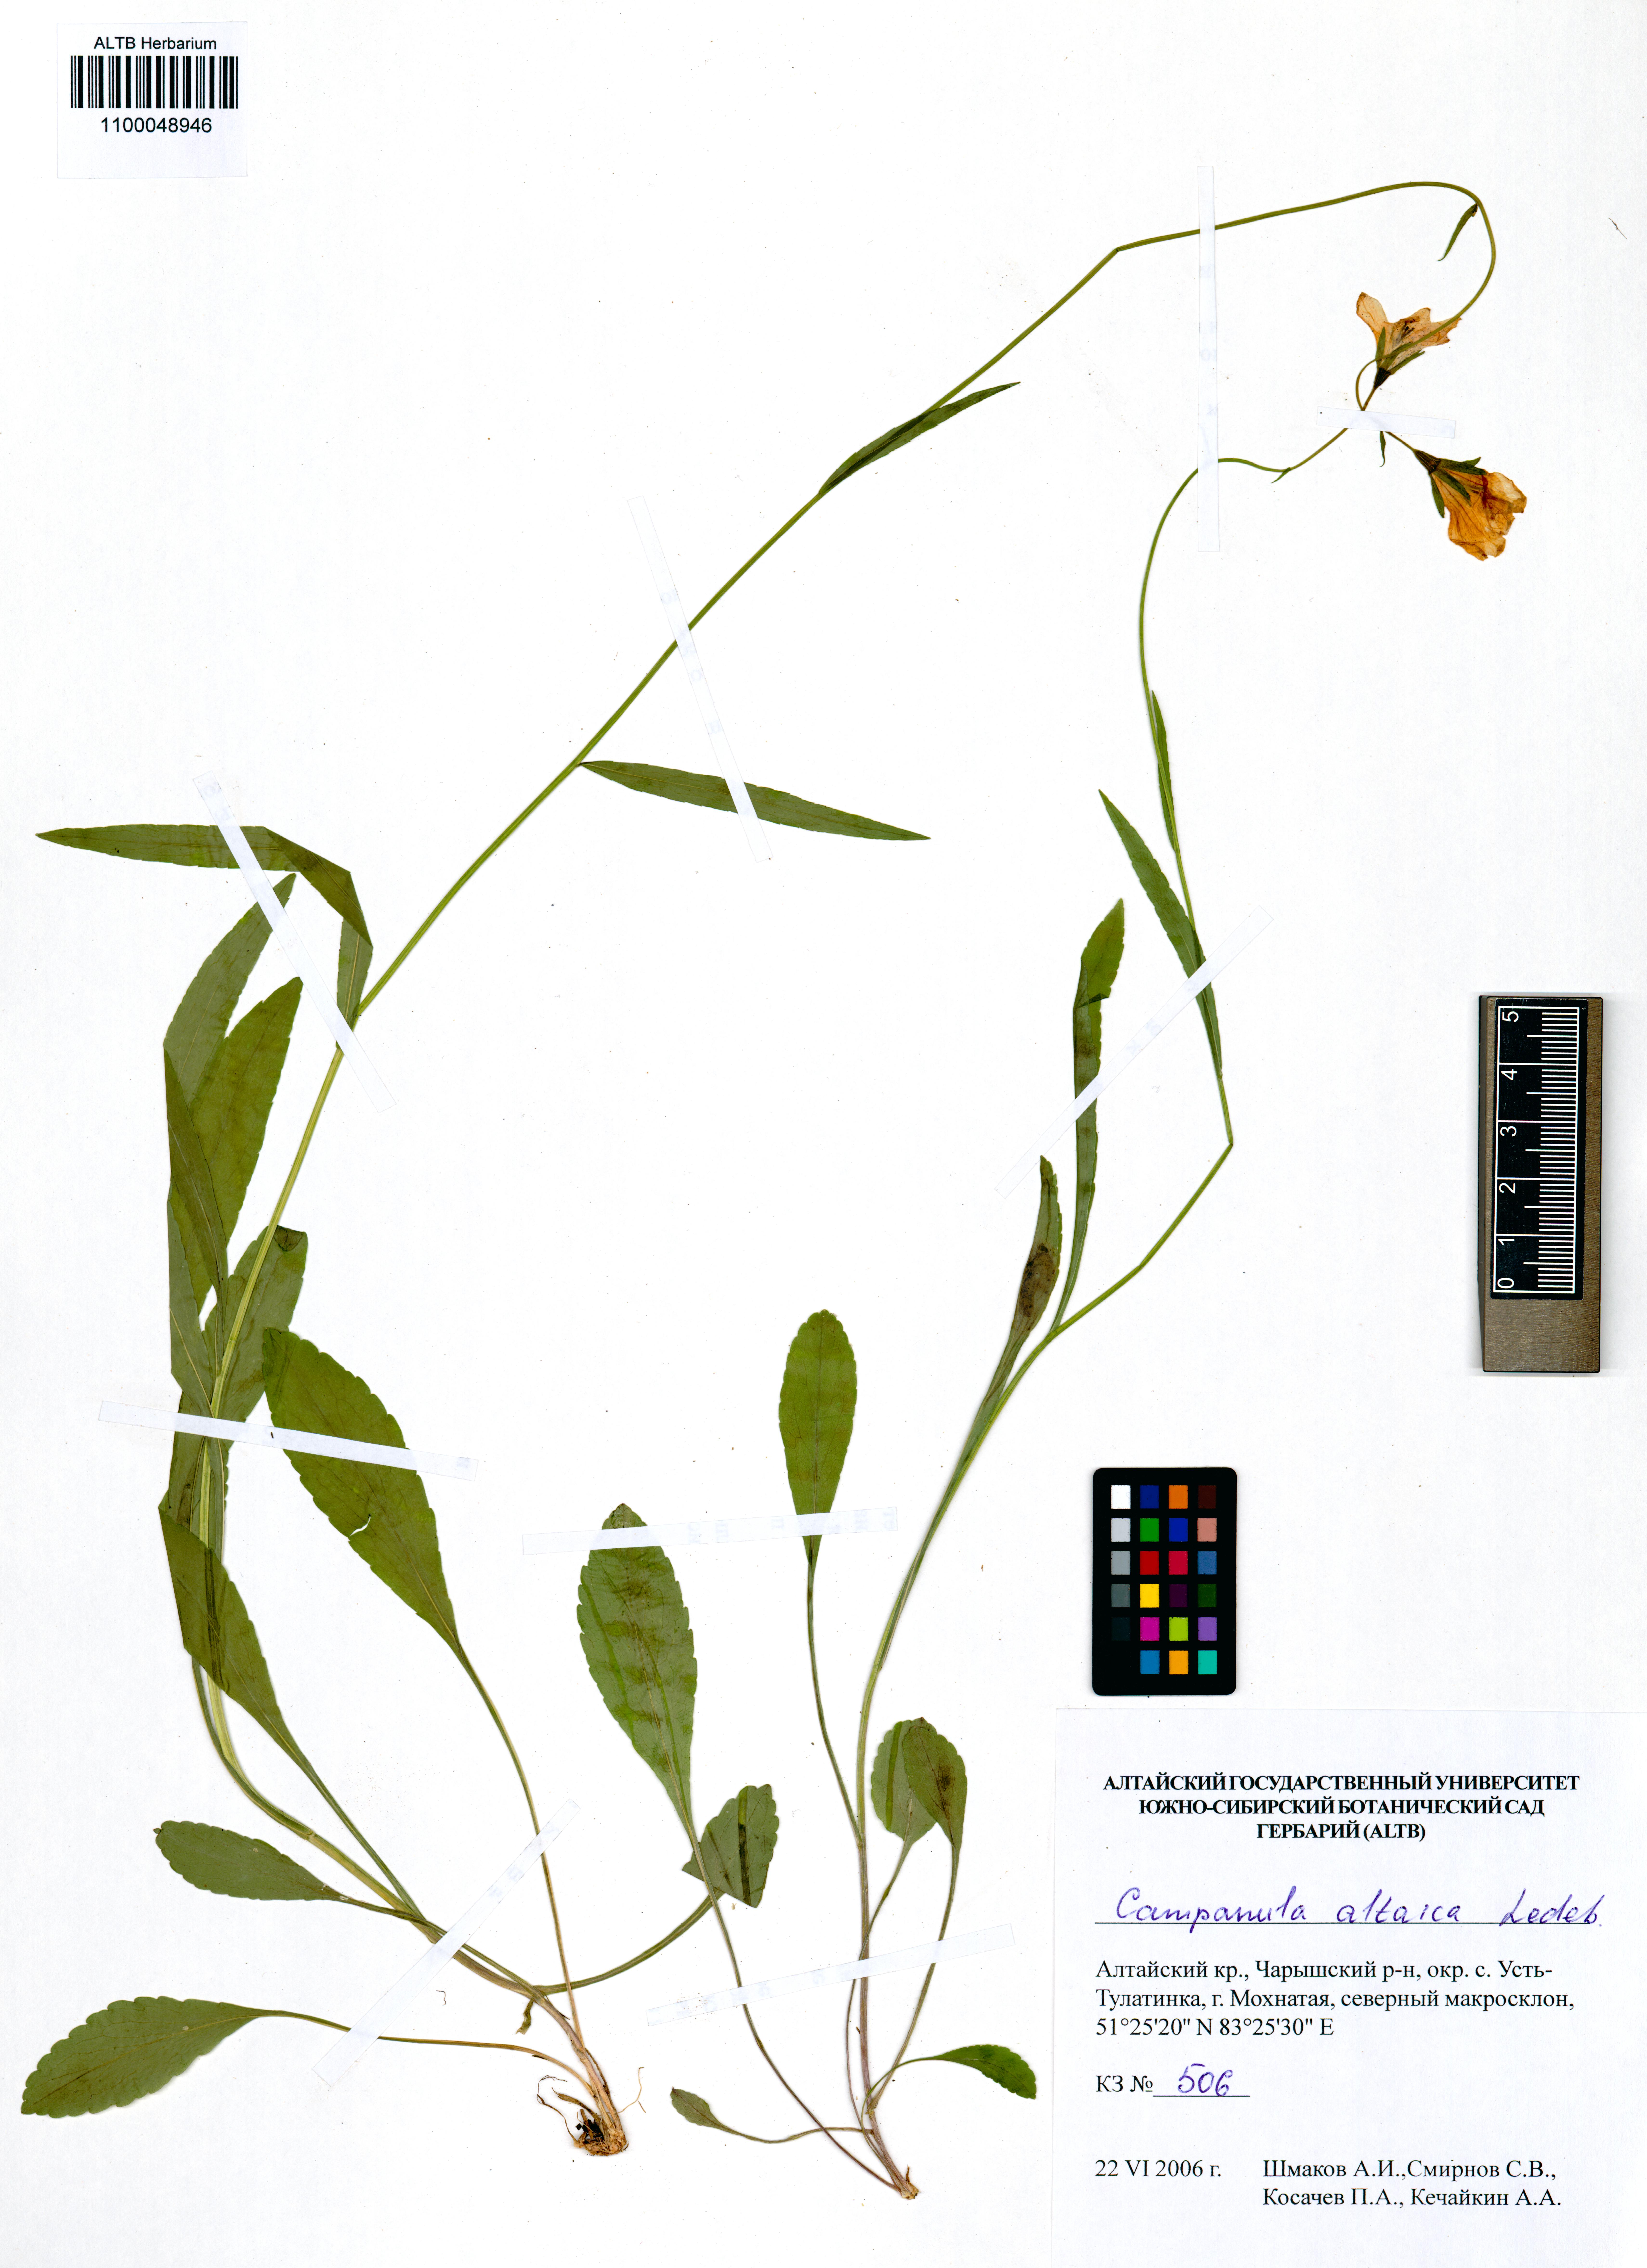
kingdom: Plantae
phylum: Tracheophyta
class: Magnoliopsida
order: Asterales
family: Campanulaceae
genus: Campanula
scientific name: Campanula stevenii
